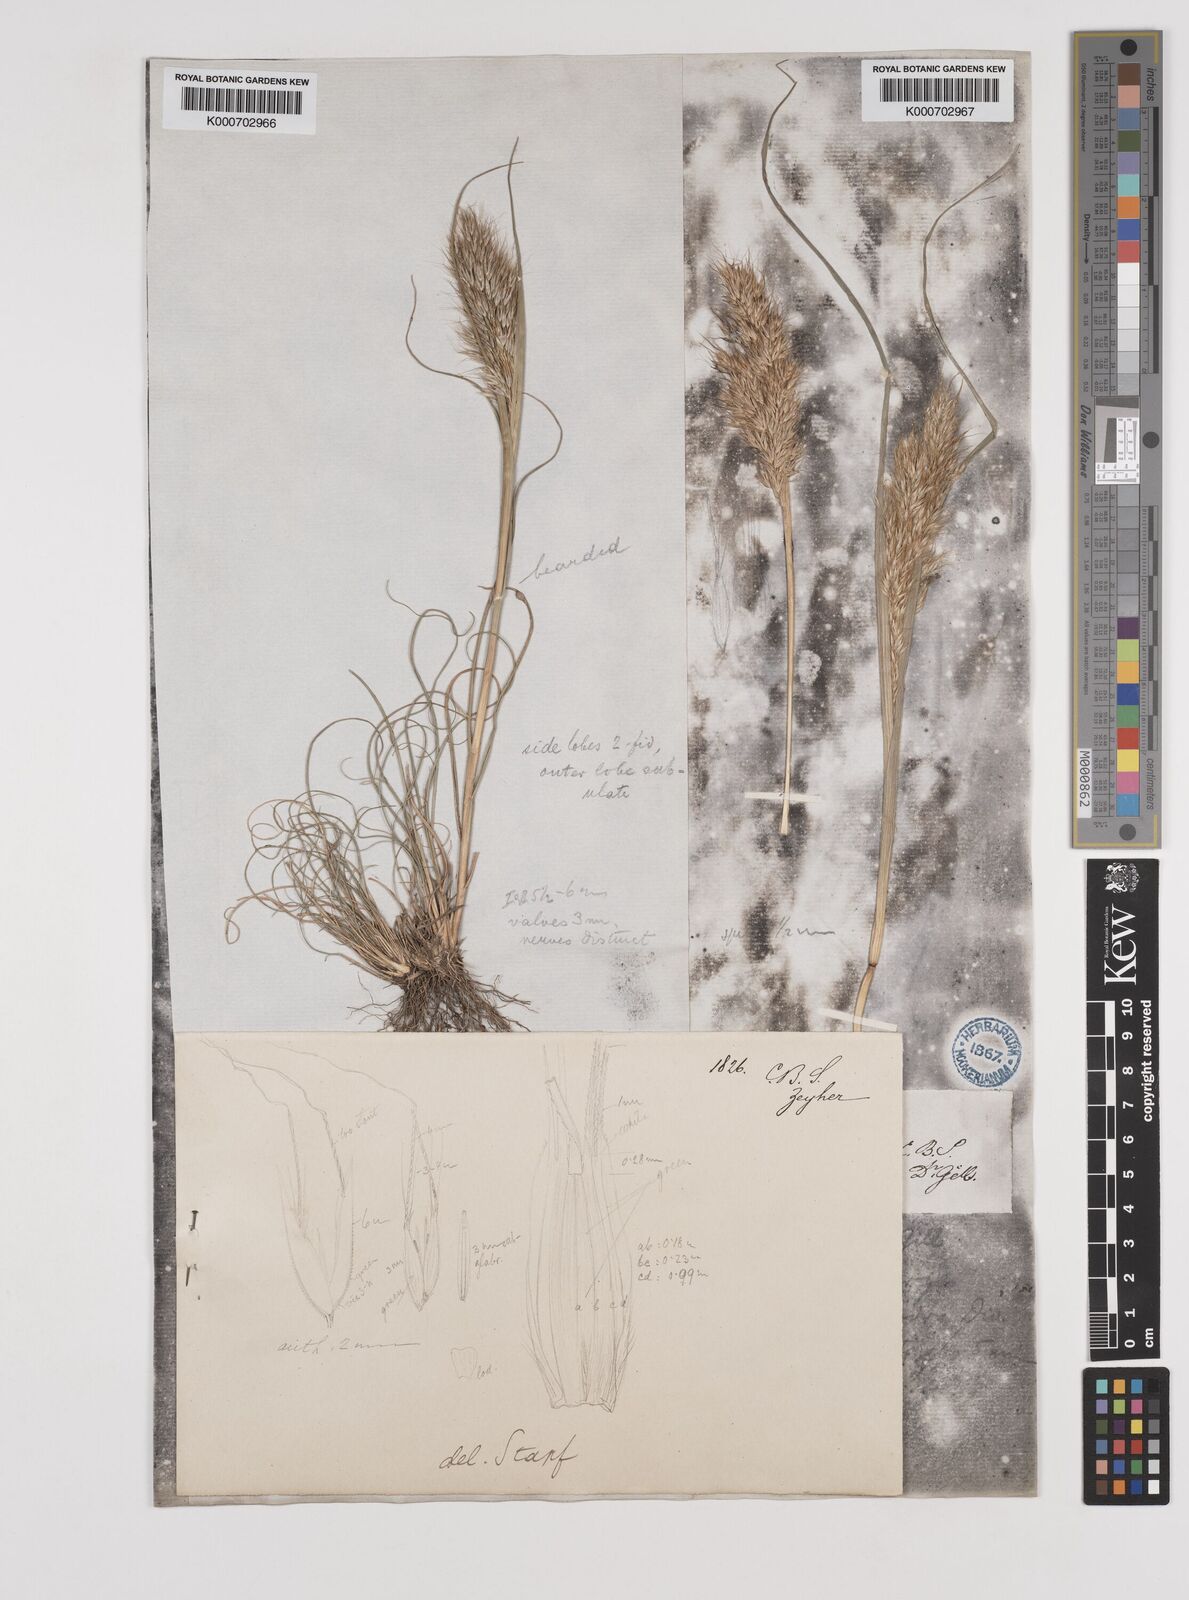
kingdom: Plantae
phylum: Tracheophyta
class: Liliopsida
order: Poales
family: Poaceae
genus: Pentameris
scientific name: Pentameris pallida
